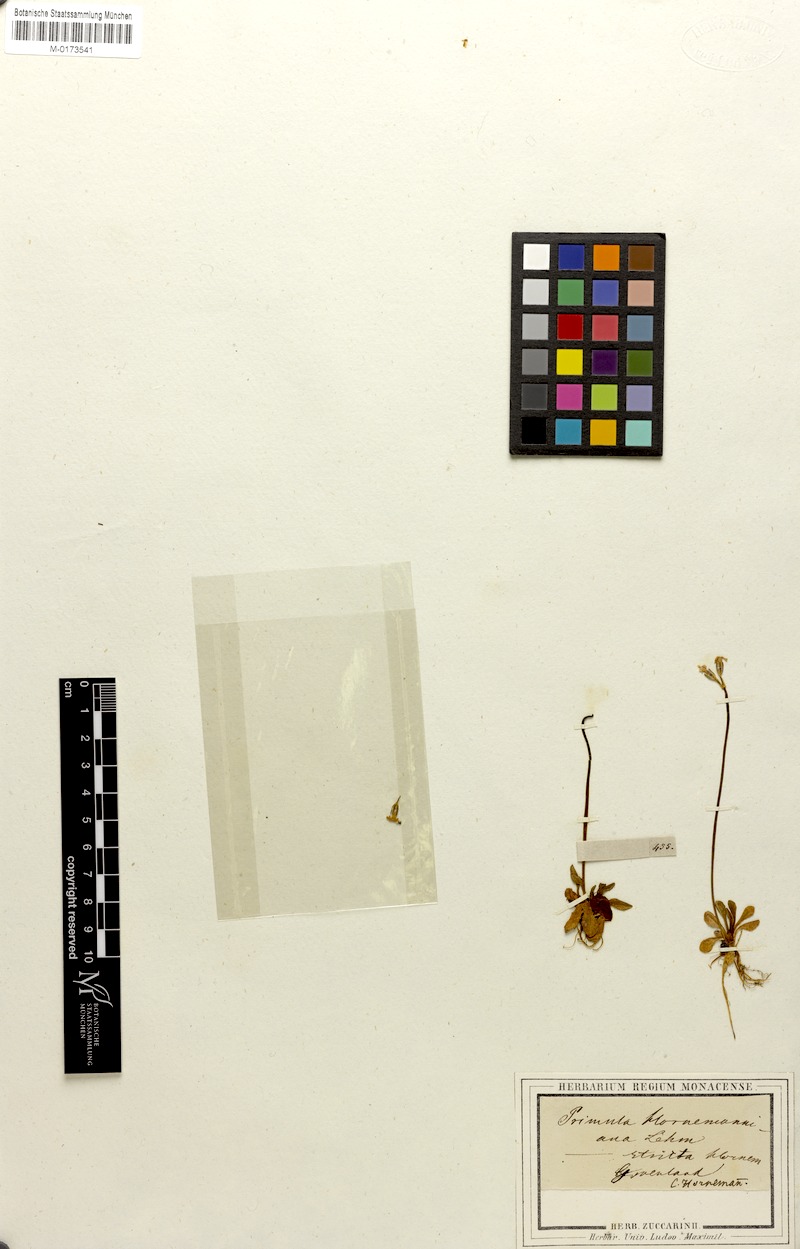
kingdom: Plantae
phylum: Tracheophyta
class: Magnoliopsida
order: Ericales
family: Primulaceae
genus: Primula
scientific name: Primula stricta
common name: Coastal primrose
